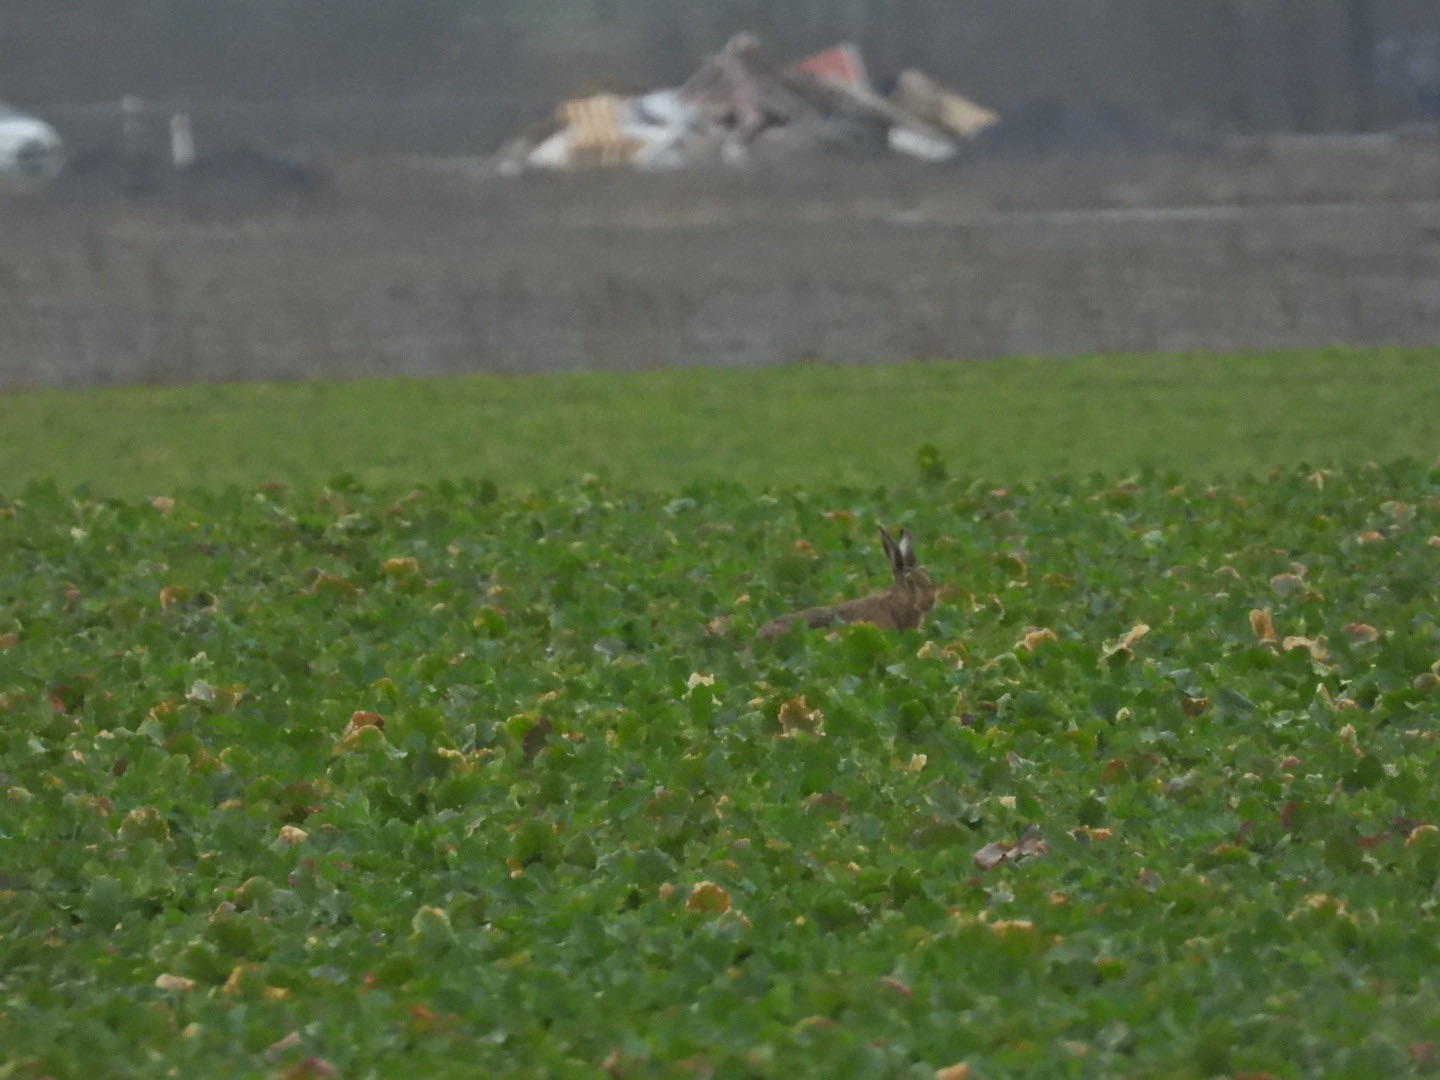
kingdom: Animalia
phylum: Chordata
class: Mammalia
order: Lagomorpha
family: Leporidae
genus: Lepus
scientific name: Lepus europaeus
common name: Hare
